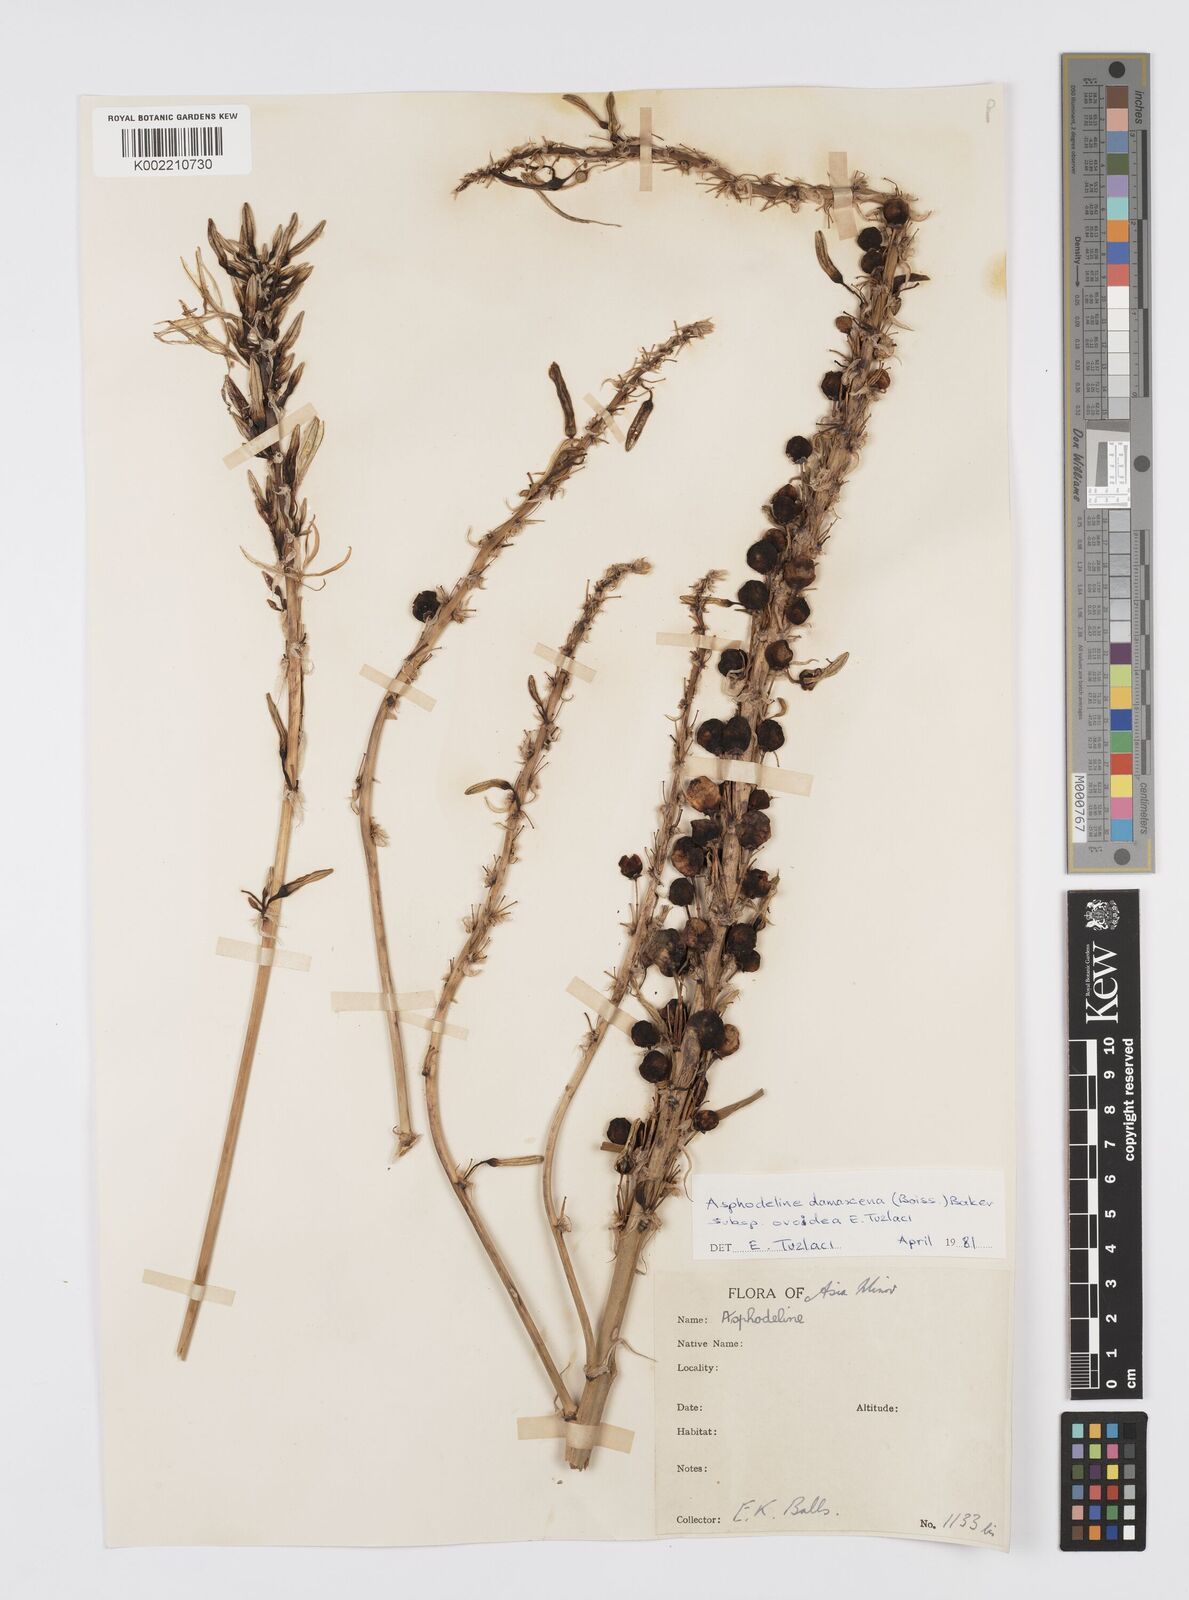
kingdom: Plantae
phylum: Tracheophyta
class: Liliopsida
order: Asparagales
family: Asphodelaceae
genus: Asphodeline
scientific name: Asphodeline damascena
